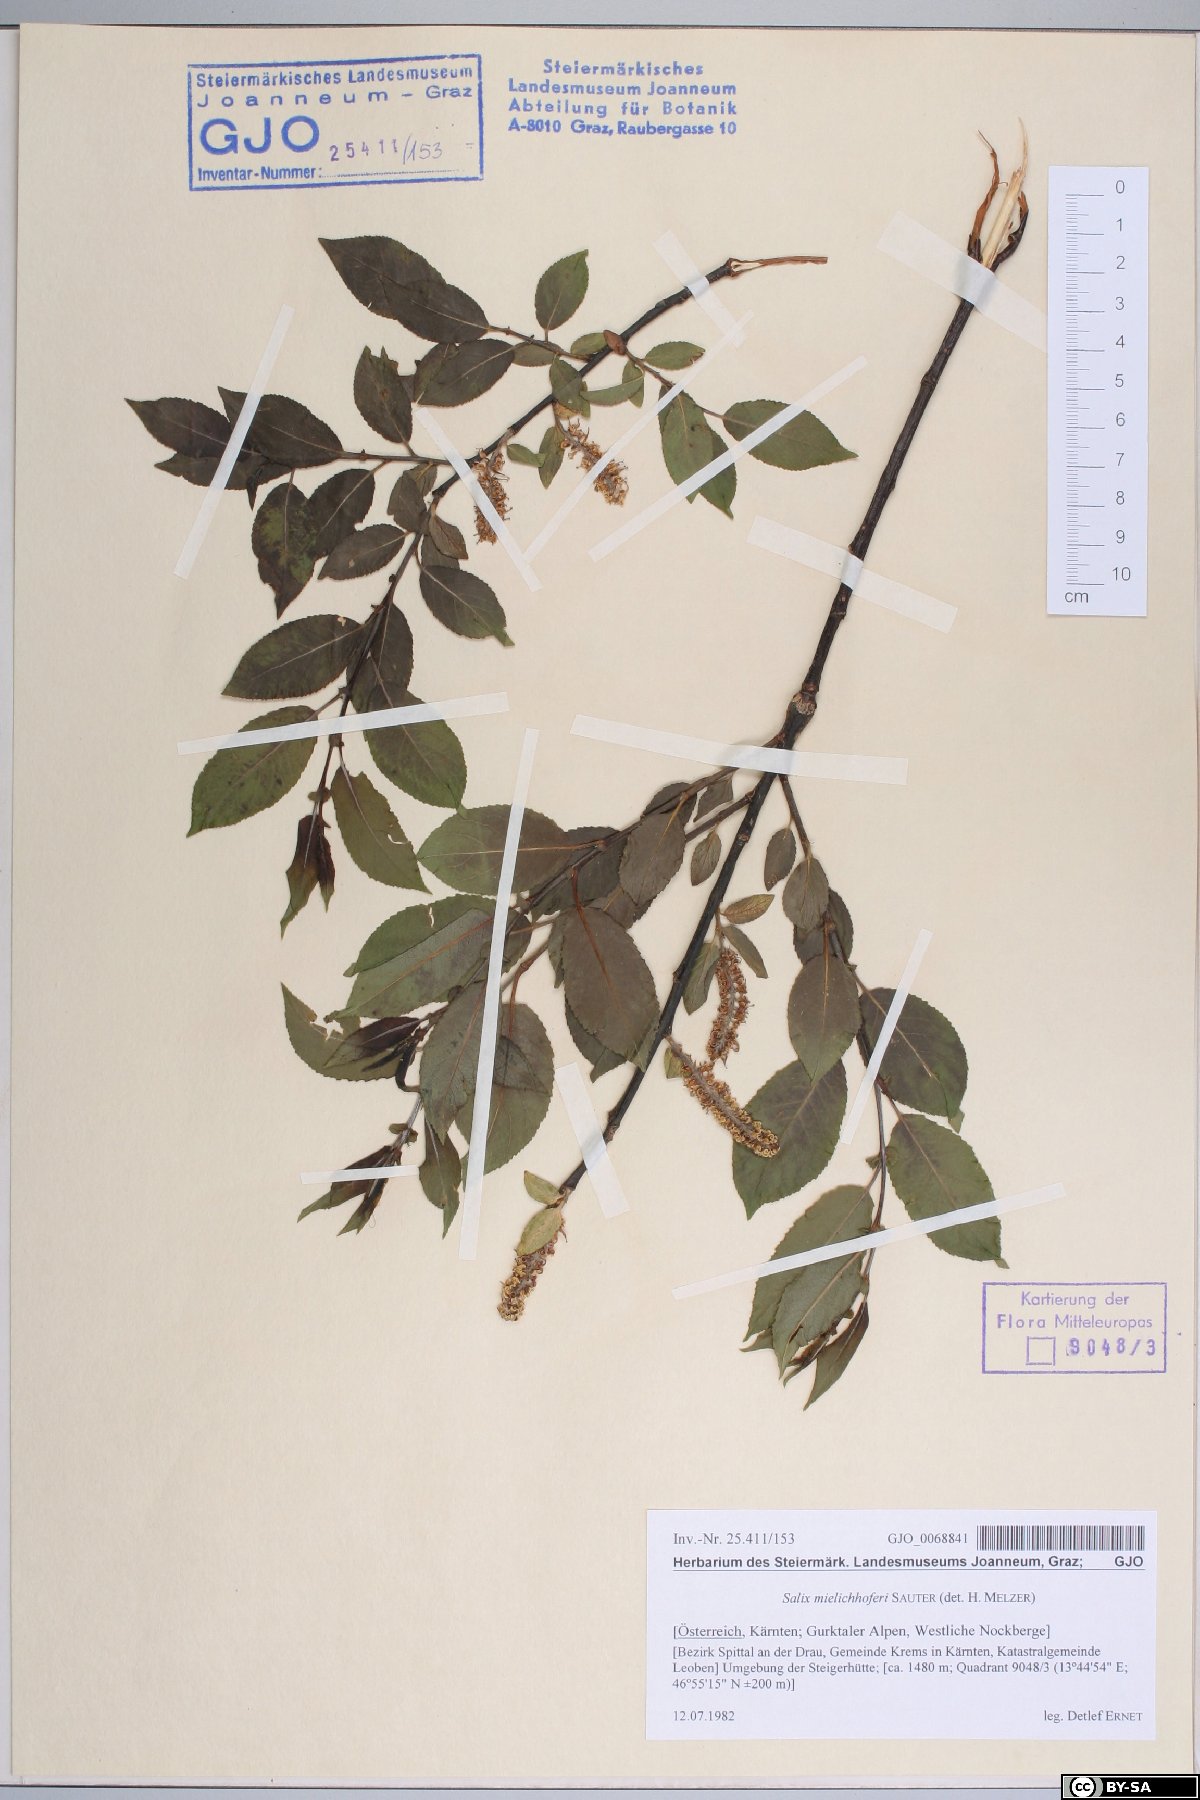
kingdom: Plantae
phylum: Tracheophyta
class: Magnoliopsida
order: Malpighiales
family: Salicaceae
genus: Salix
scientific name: Salix mielichhoferi
